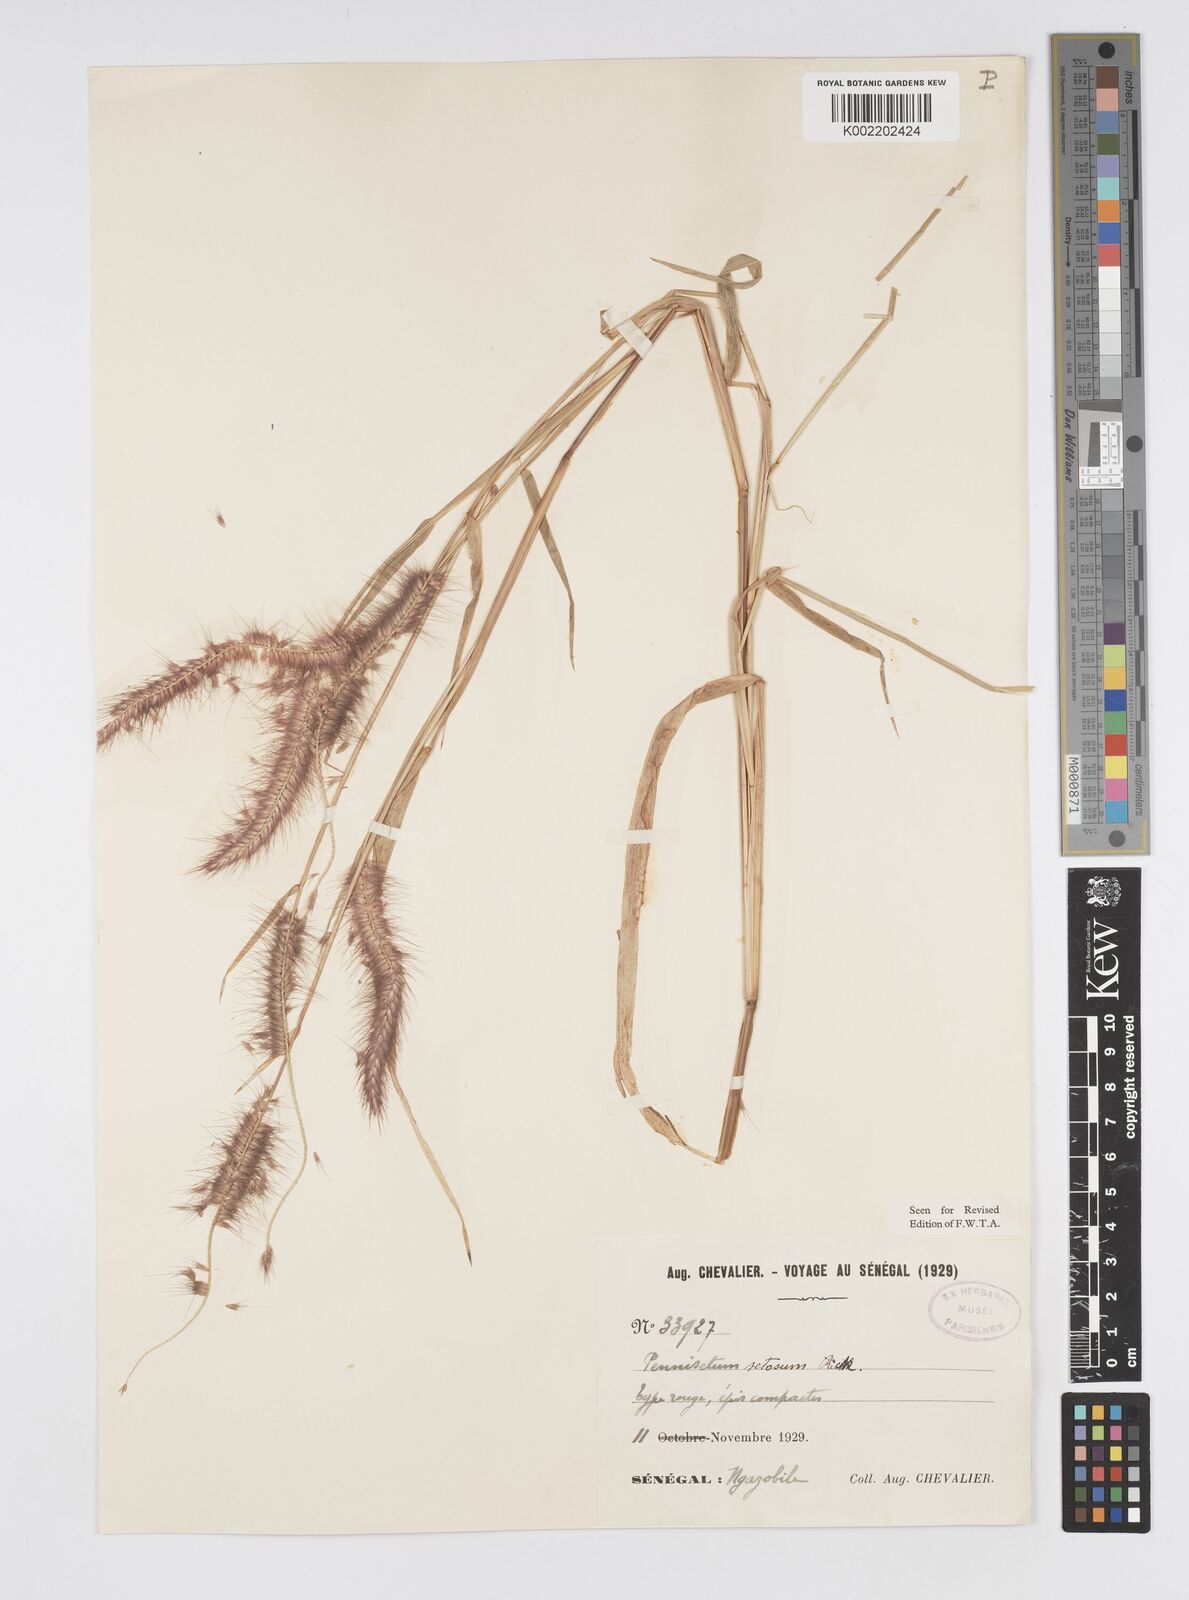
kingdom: Plantae
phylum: Tracheophyta
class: Liliopsida
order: Poales
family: Poaceae
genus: Setaria
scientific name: Setaria parviflora
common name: Knotroot bristle-grass
